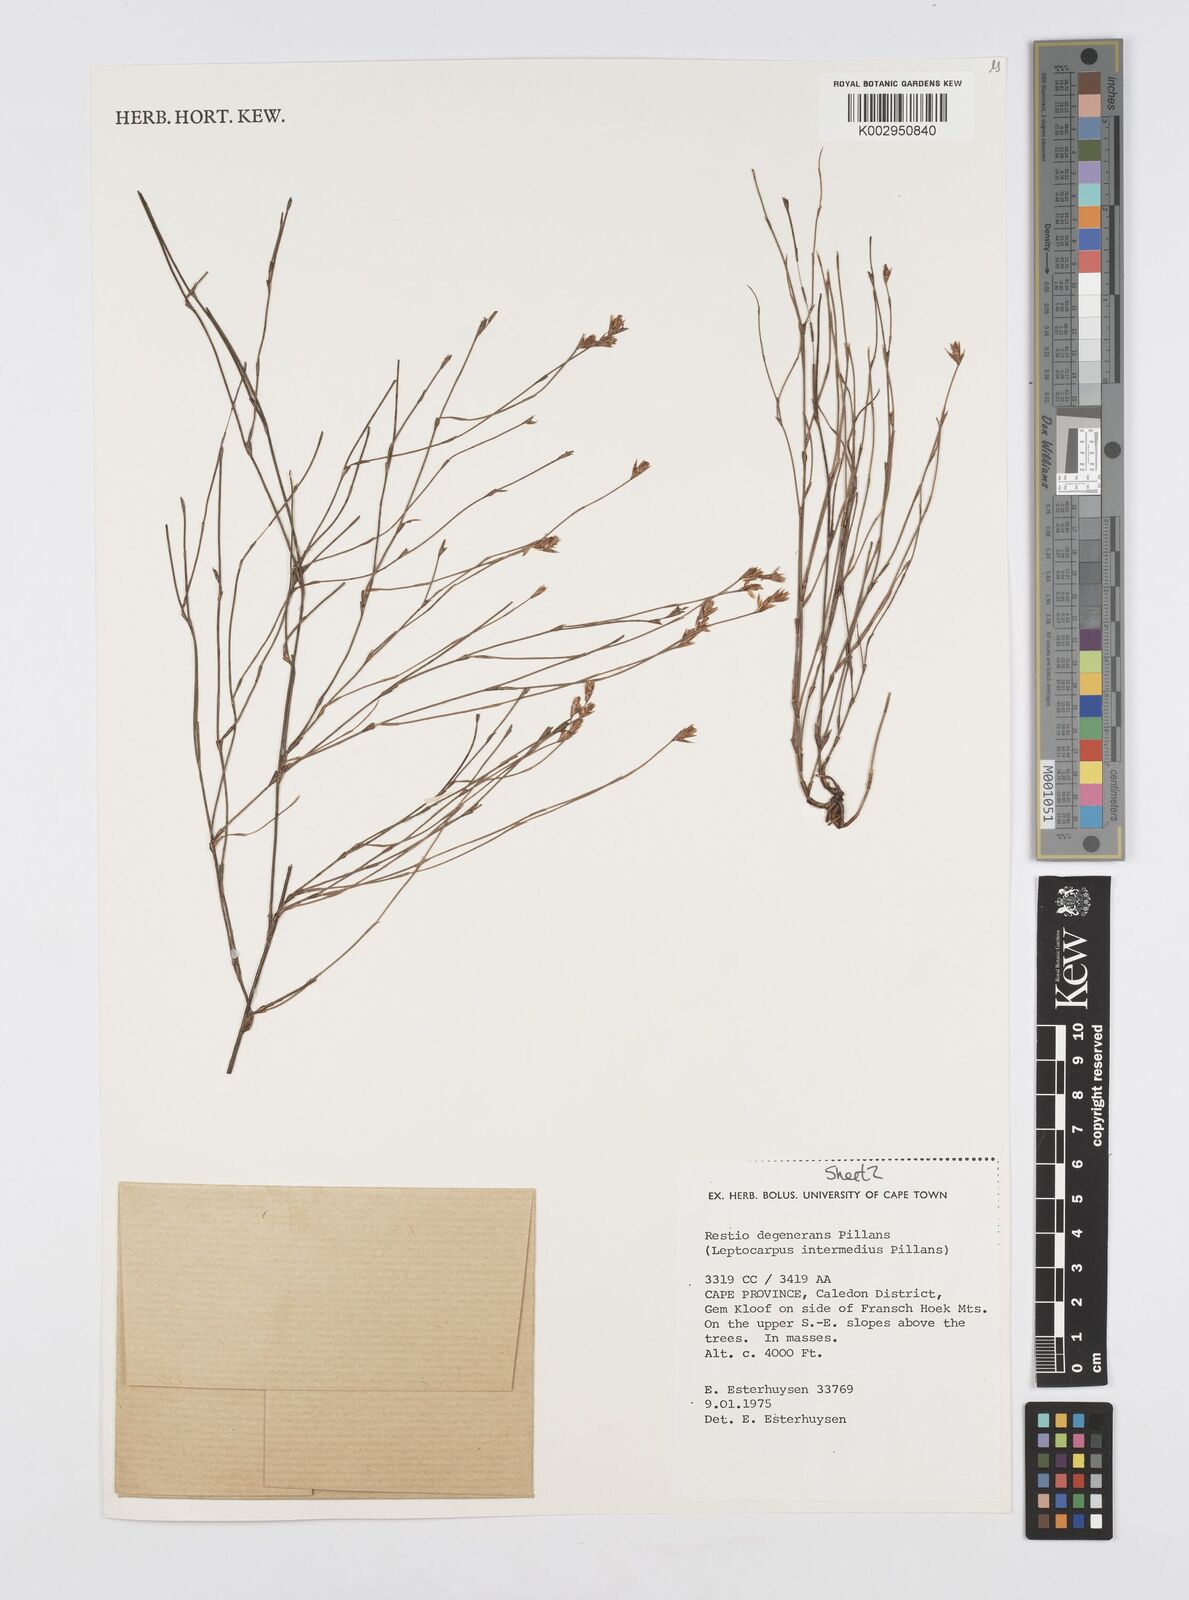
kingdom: Plantae
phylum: Tracheophyta
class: Liliopsida
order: Poales
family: Restionaceae
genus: Restio
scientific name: Restio degenerans
